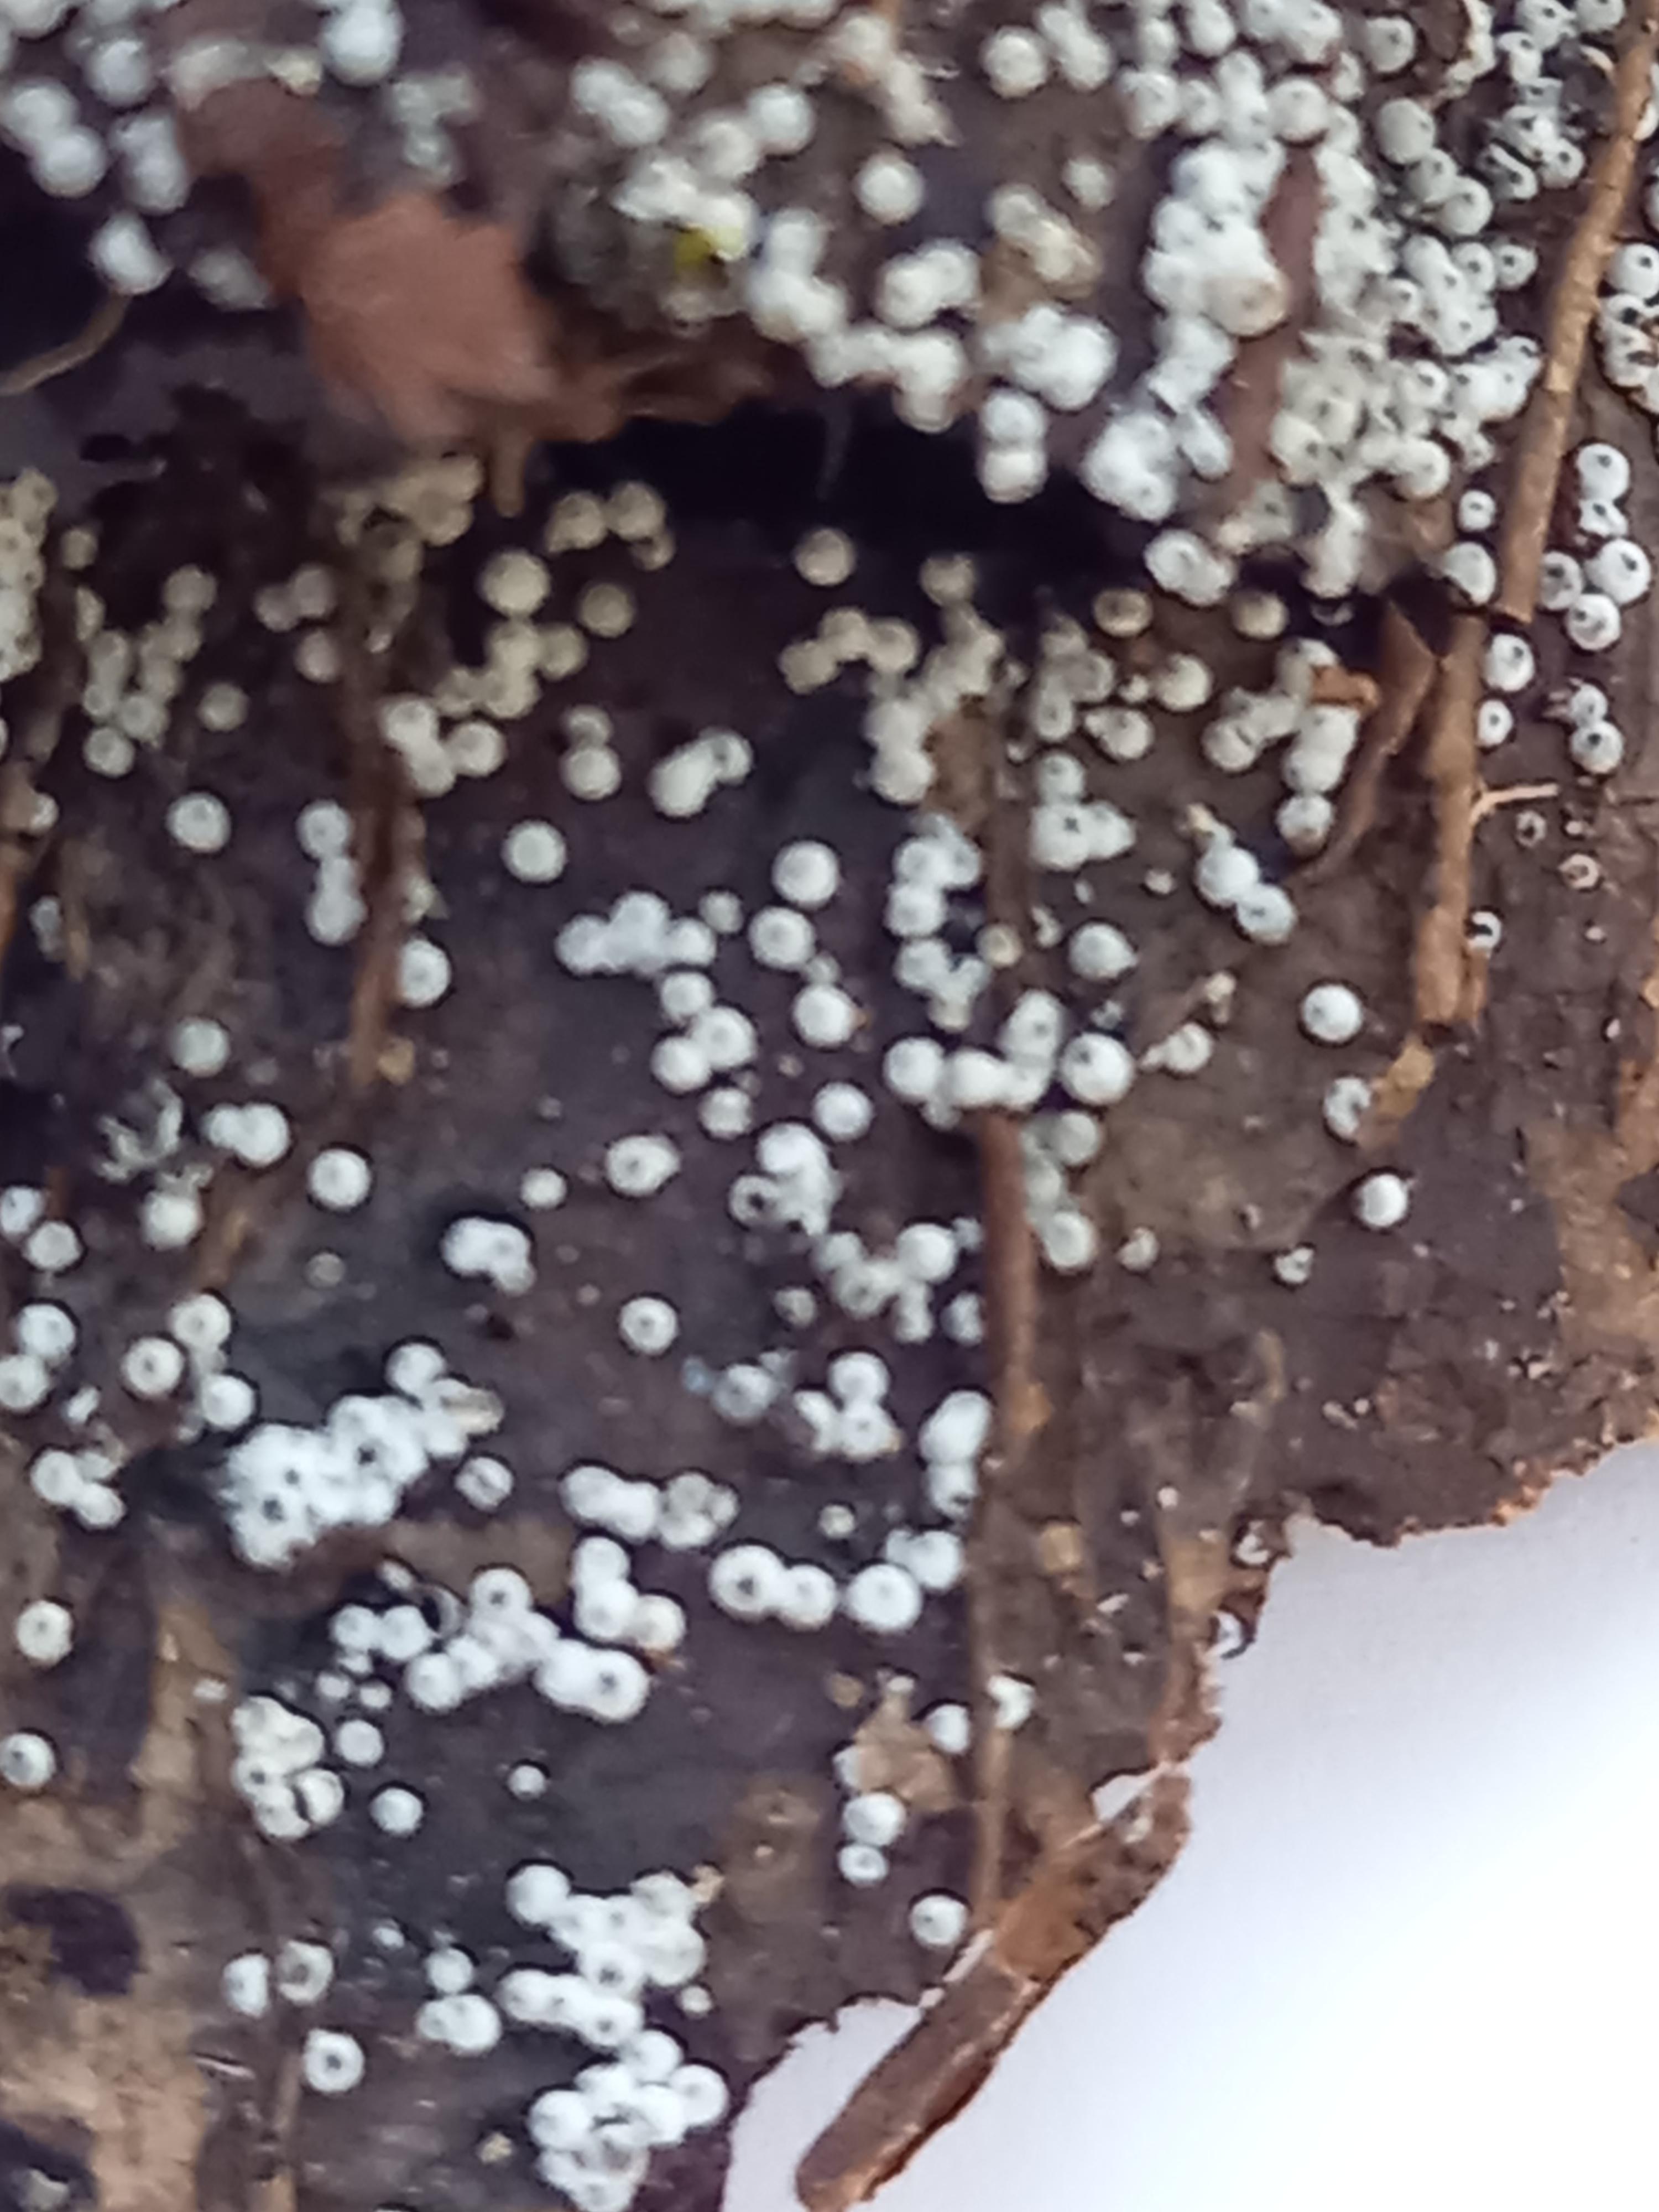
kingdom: Fungi
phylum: Ascomycota
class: Sordariomycetes
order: Sordariales
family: Lasiosphaeriaceae
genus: Lasiosphaeria
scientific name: Lasiosphaeria ovina
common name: fåre-kernesvamp
